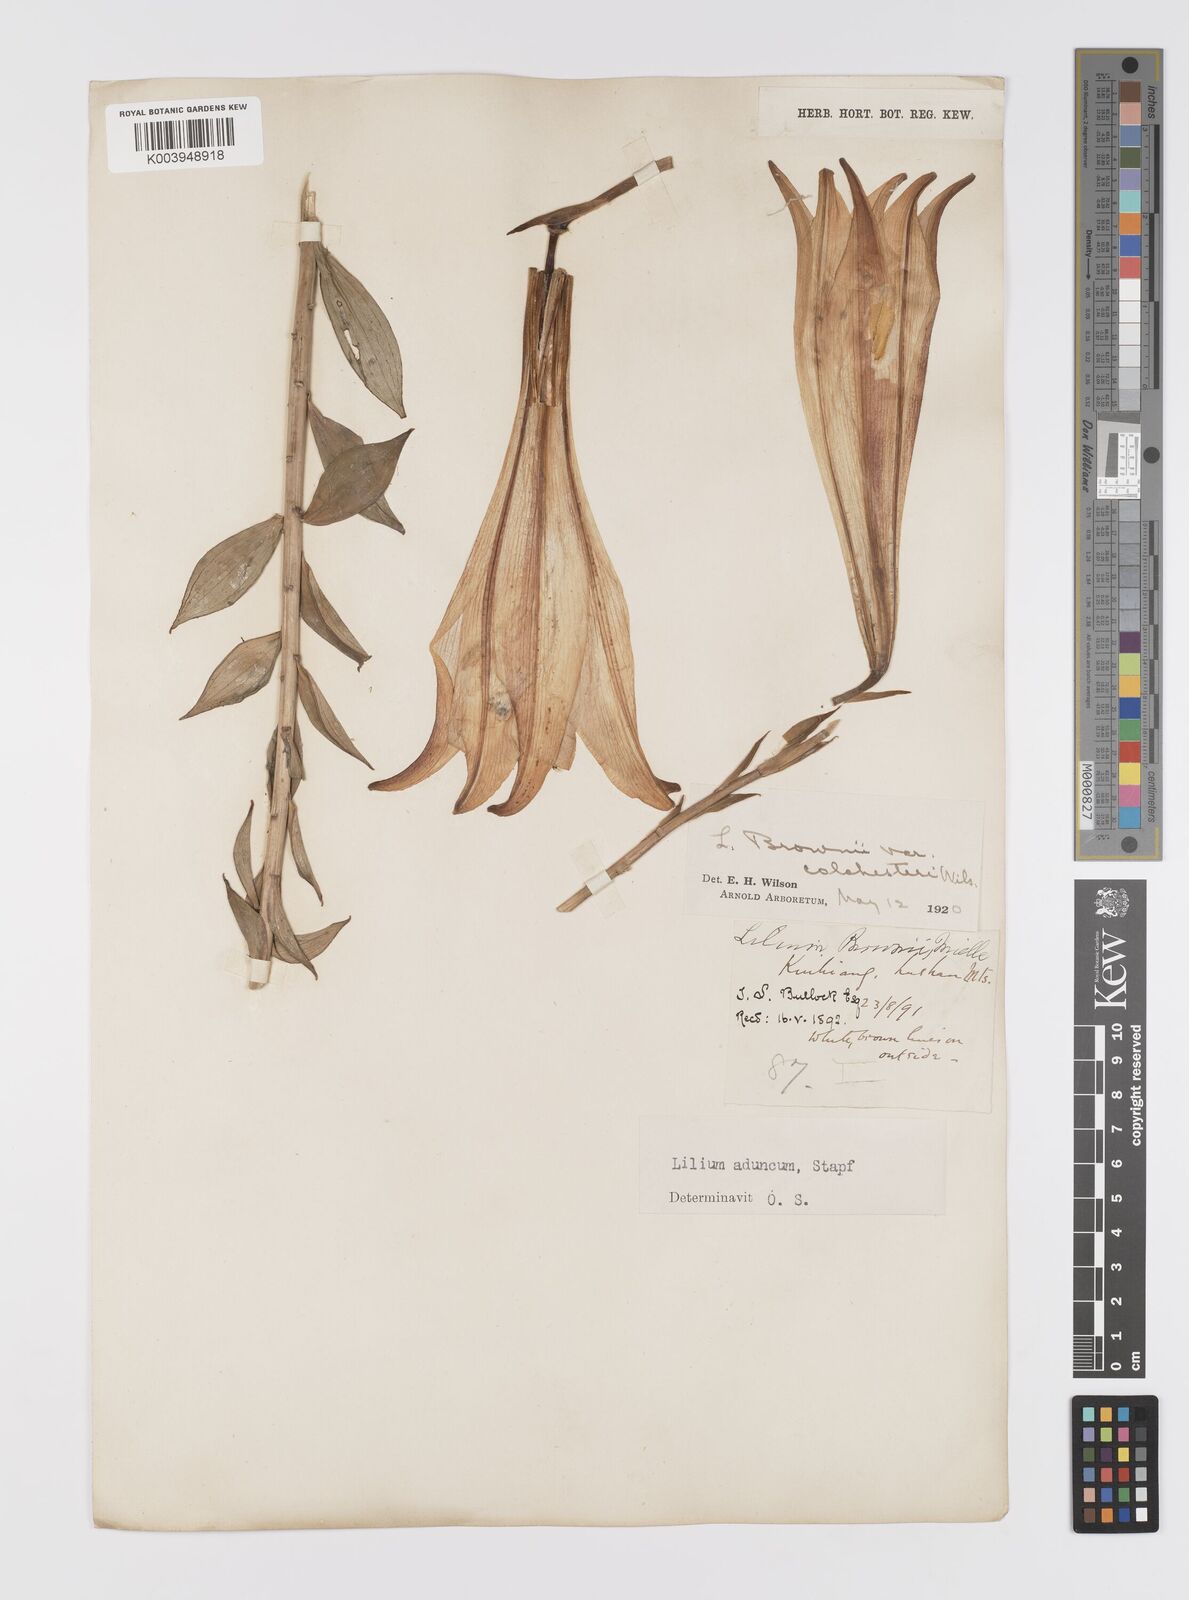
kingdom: Plantae
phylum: Tracheophyta
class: Liliopsida
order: Liliales
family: Liliaceae
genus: Lilium
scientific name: Lilium brownii
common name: Brown's lily
